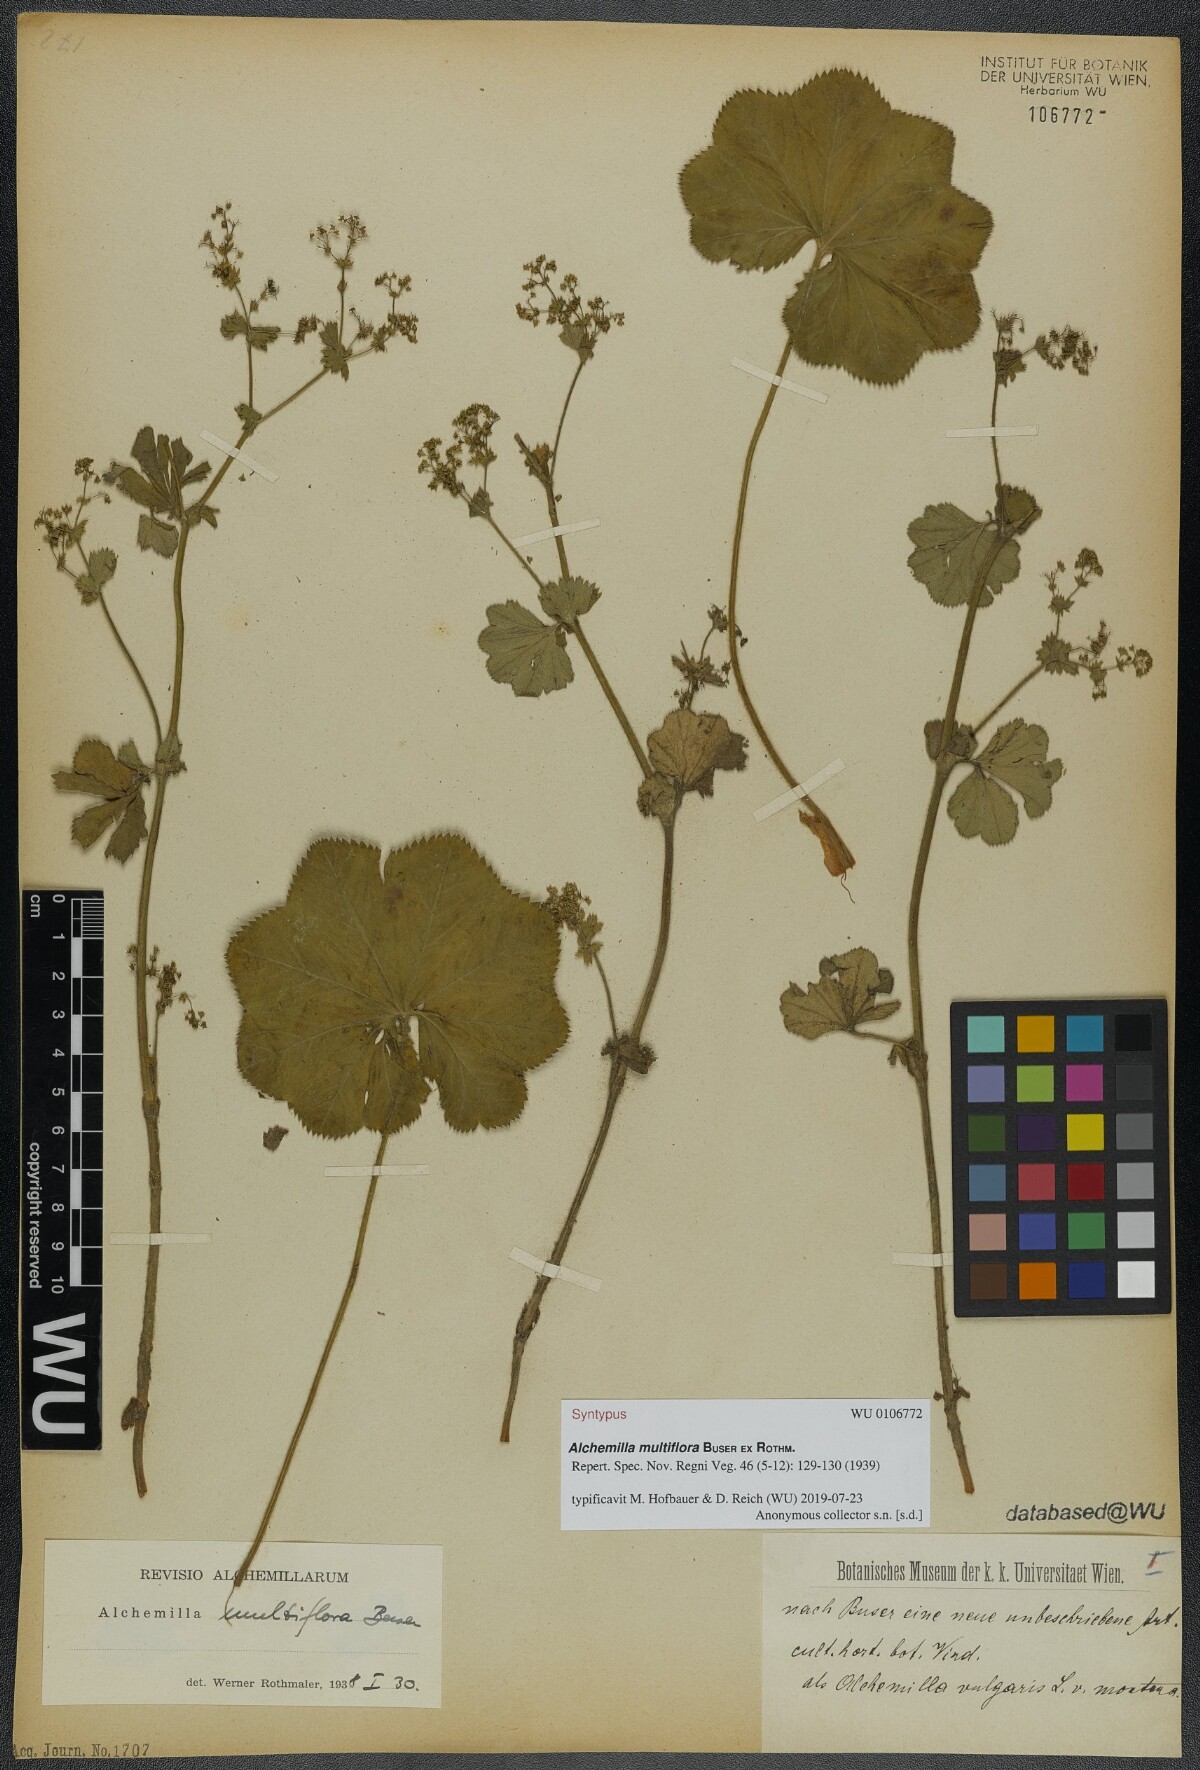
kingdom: Plantae
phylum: Tracheophyta
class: Magnoliopsida
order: Rosales
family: Rosaceae
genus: Alchemilla
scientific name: Alchemilla tytthantha
